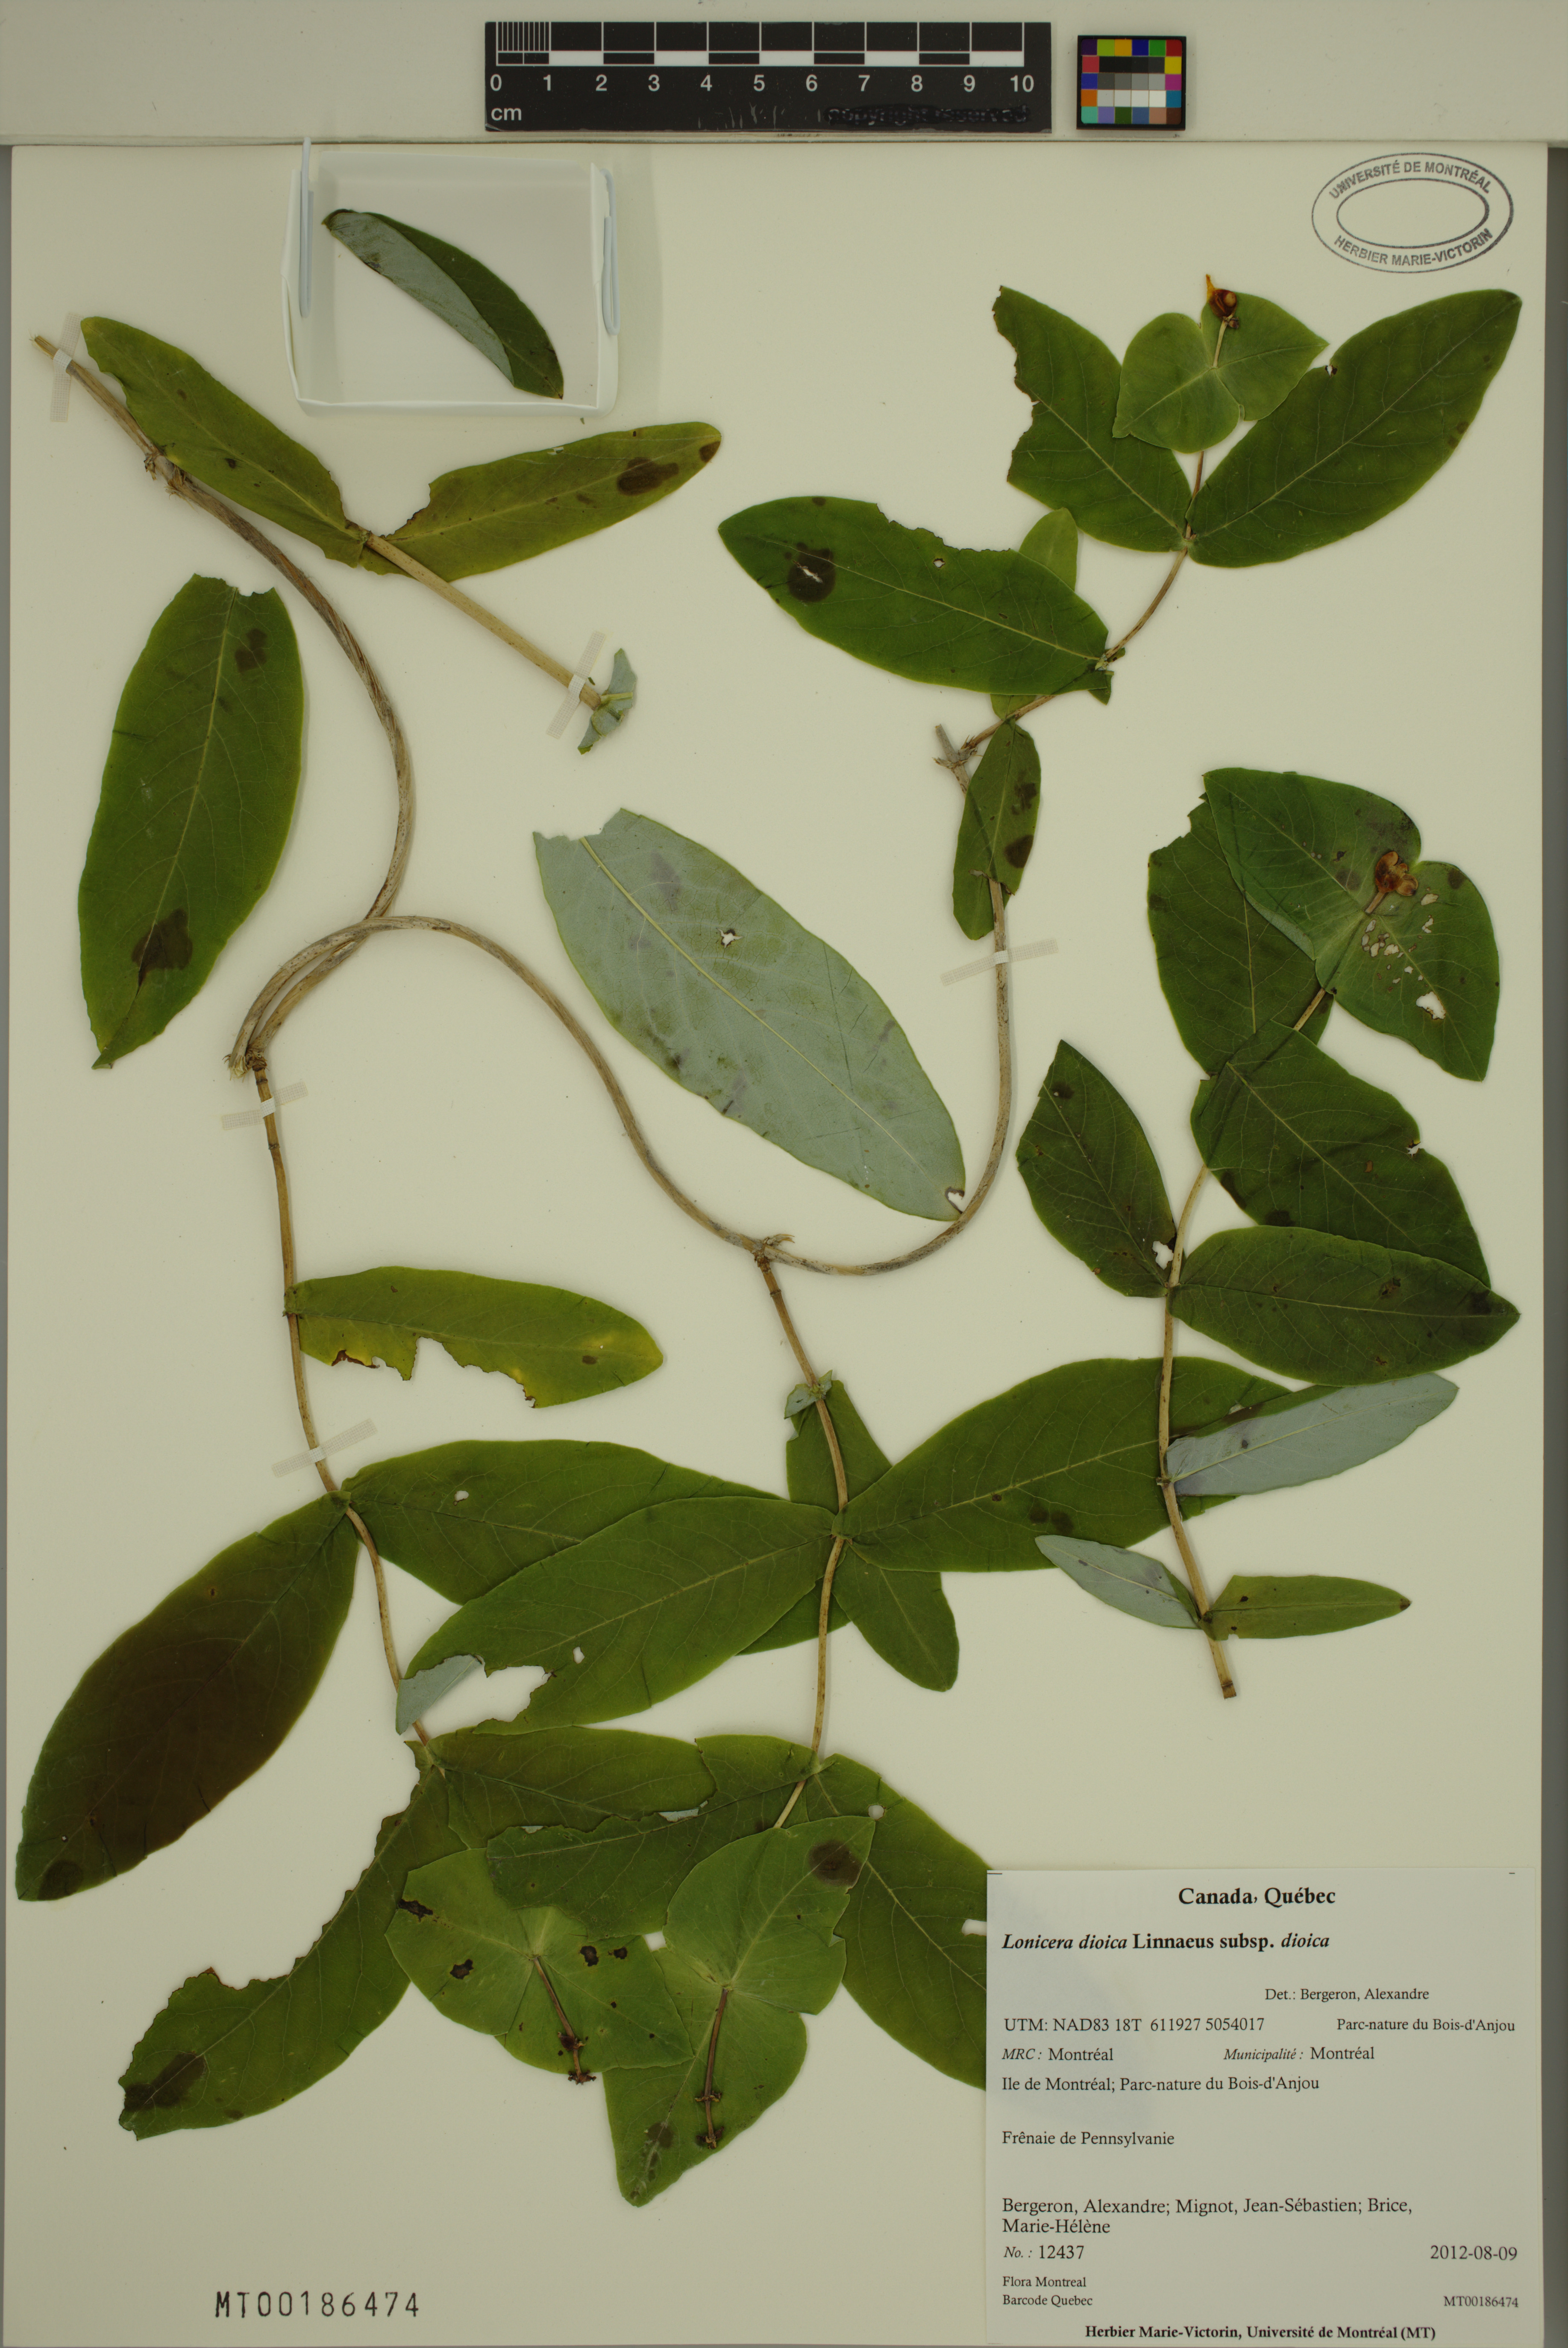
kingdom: Plantae
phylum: Tracheophyta
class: Magnoliopsida
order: Dipsacales
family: Caprifoliaceae
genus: Lonicera
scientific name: Lonicera dioica
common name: Limber honeysuckle
